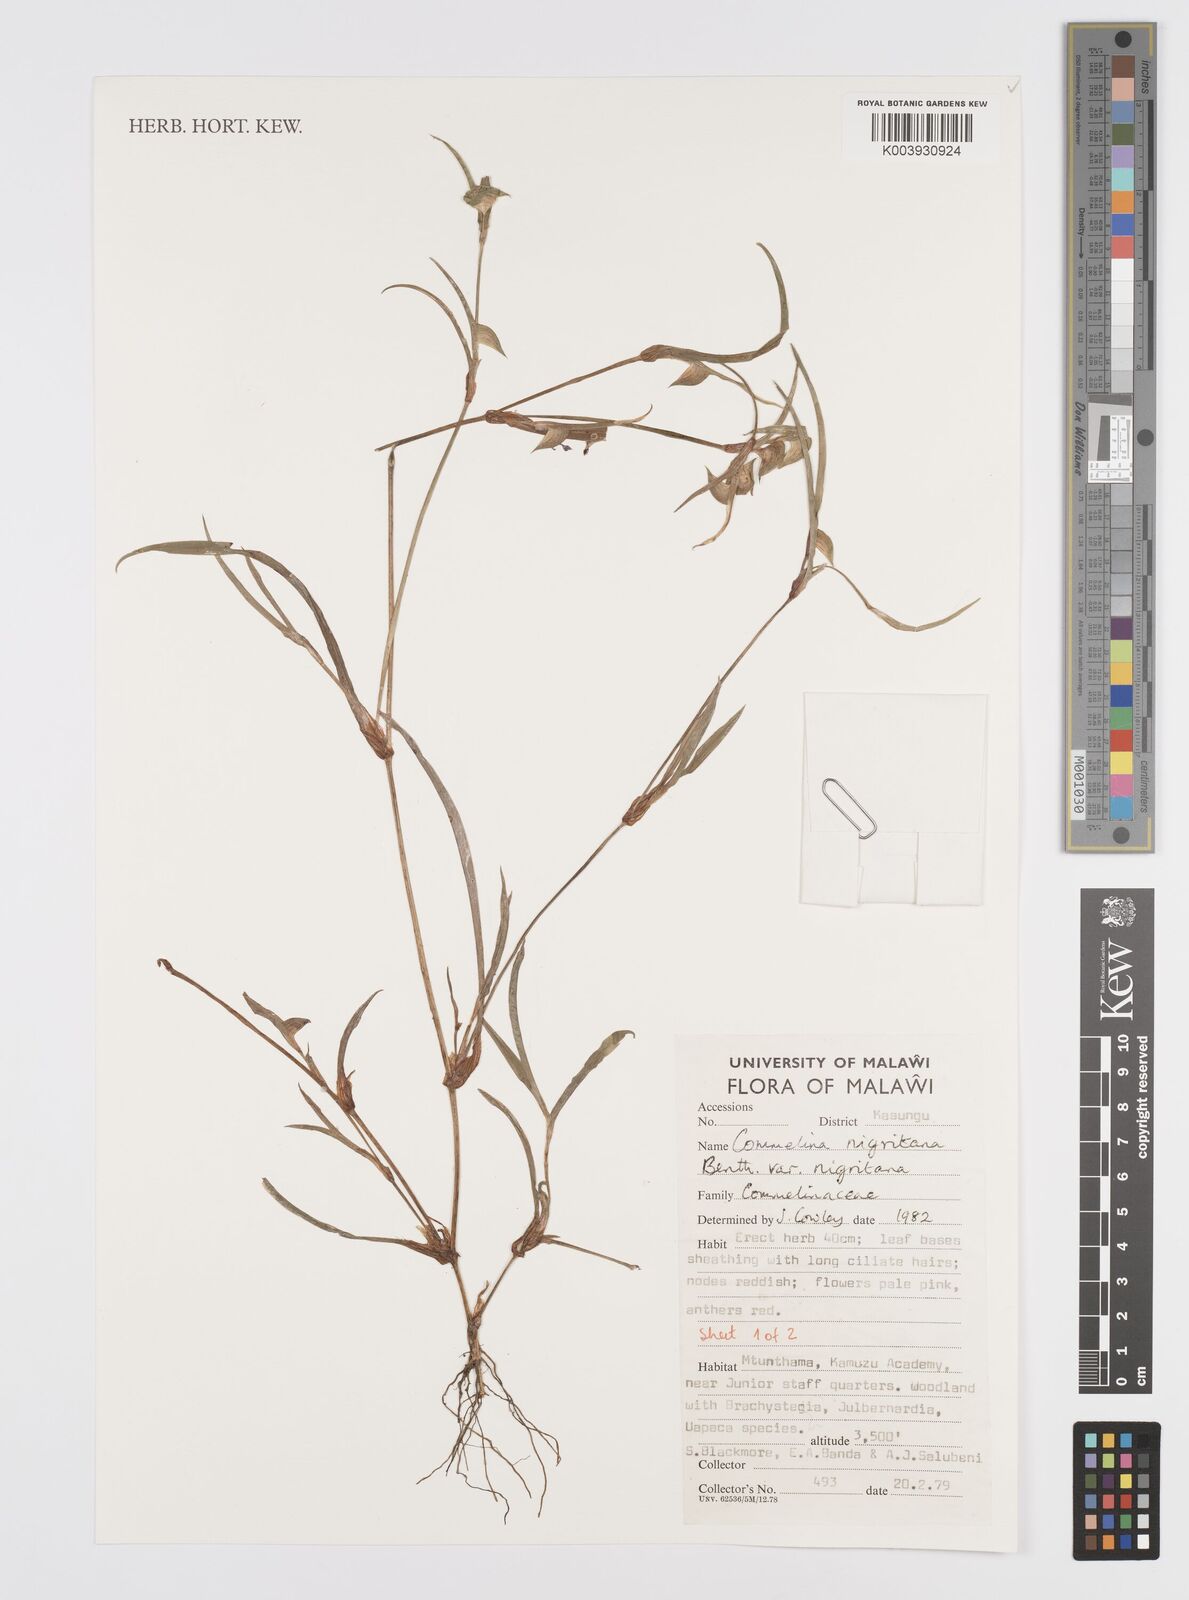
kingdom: Plantae
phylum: Tracheophyta
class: Liliopsida
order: Commelinales
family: Commelinaceae
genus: Commelina
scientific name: Commelina nigritana
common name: African dayflower
